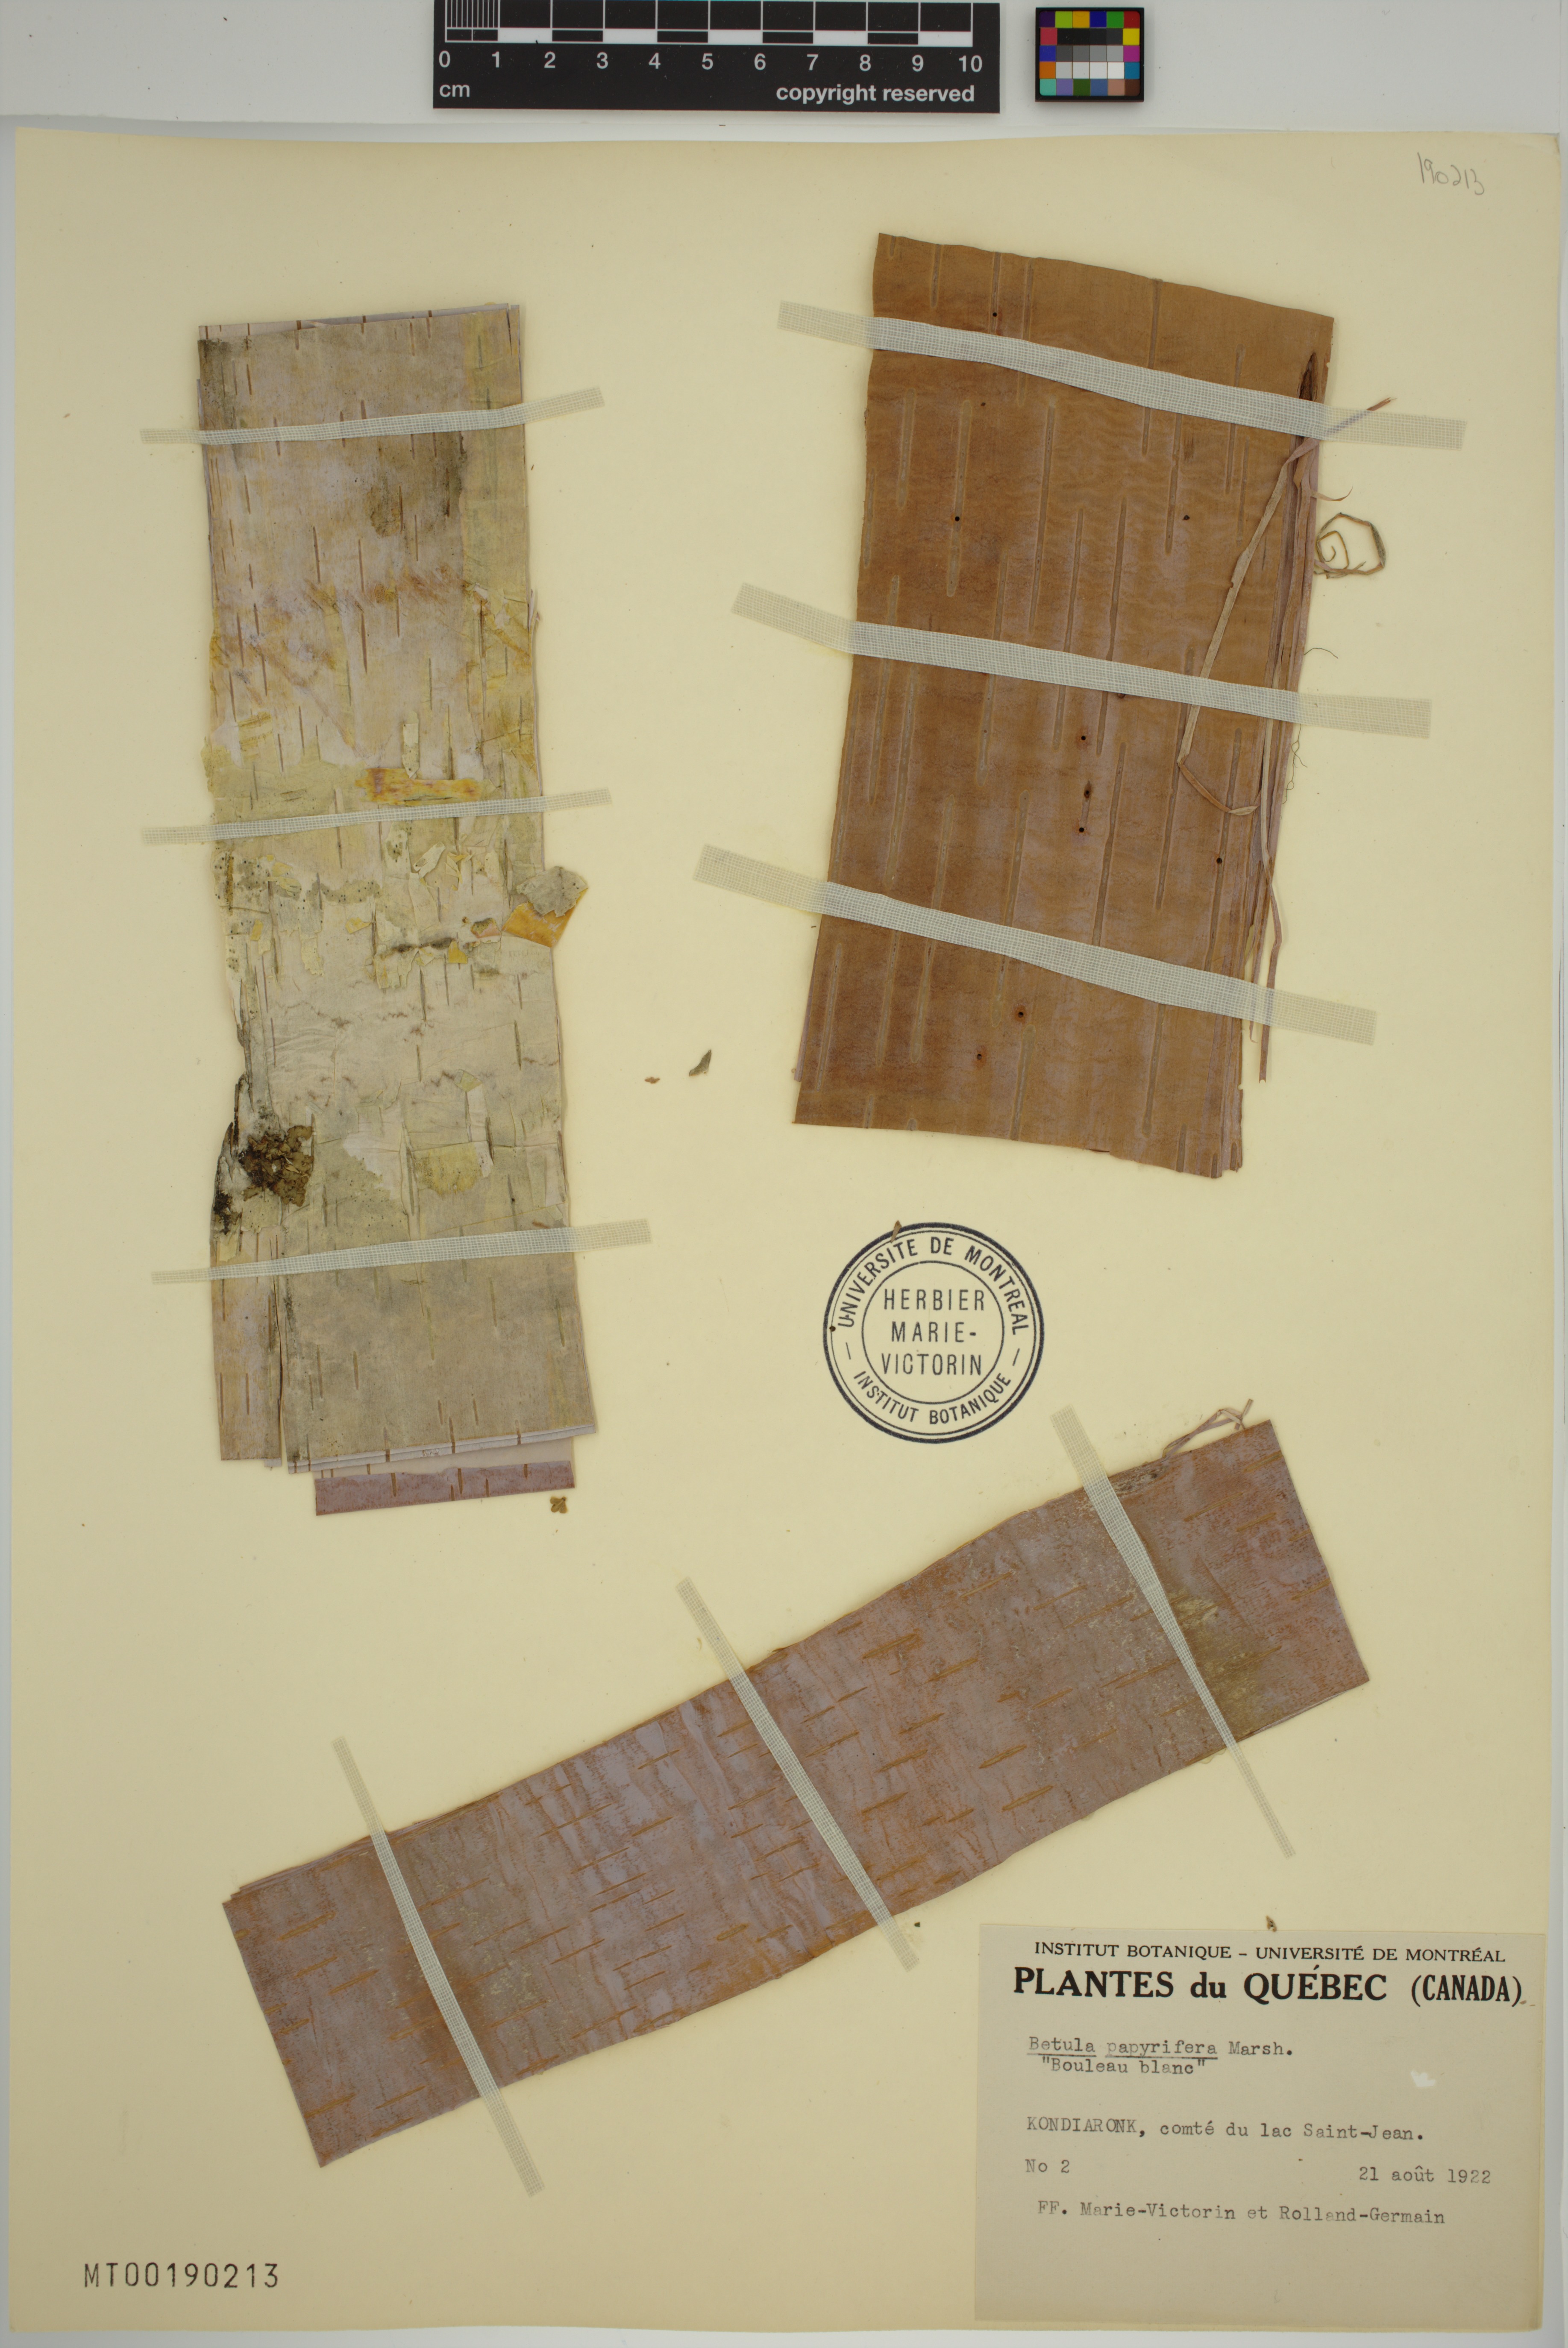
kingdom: Plantae
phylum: Tracheophyta
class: Magnoliopsida
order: Fagales
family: Betulaceae
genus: Betula
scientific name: Betula papyrifera
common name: Paper birch
